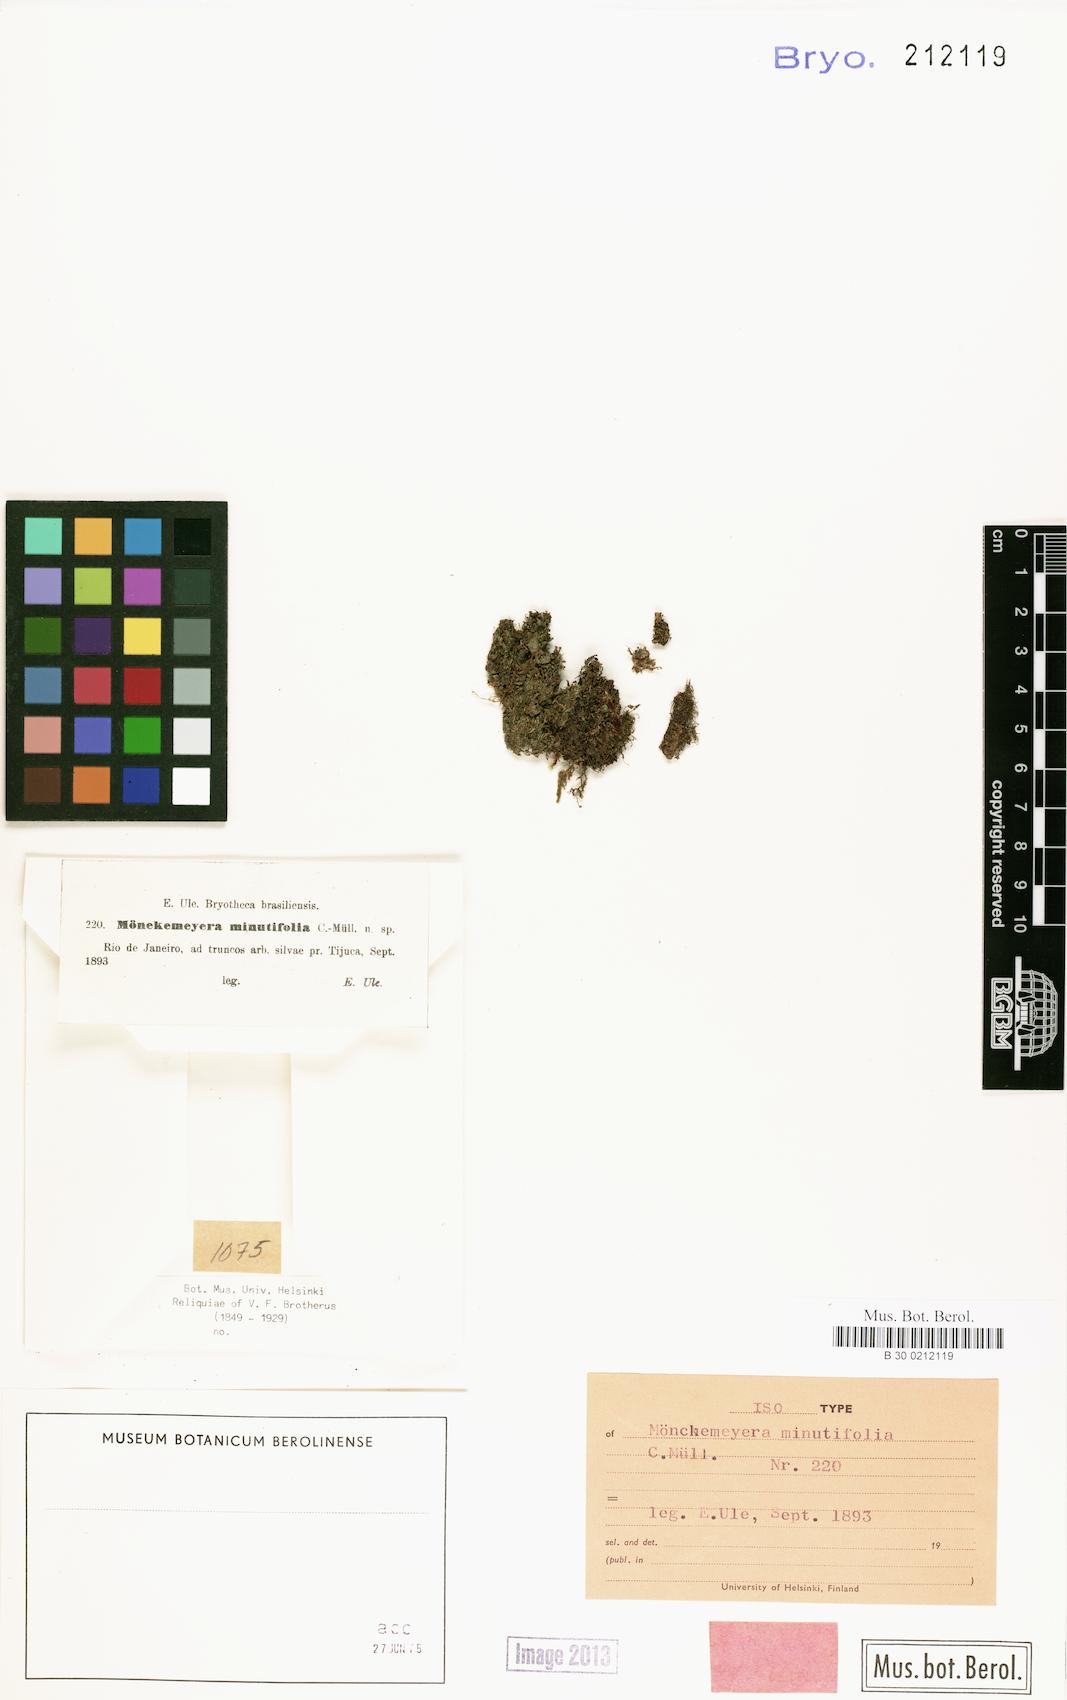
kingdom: Plantae
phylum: Bryophyta
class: Bryopsida
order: Dicranales
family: Fissidentaceae
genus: Fissidens
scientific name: Fissidens lagenarius
